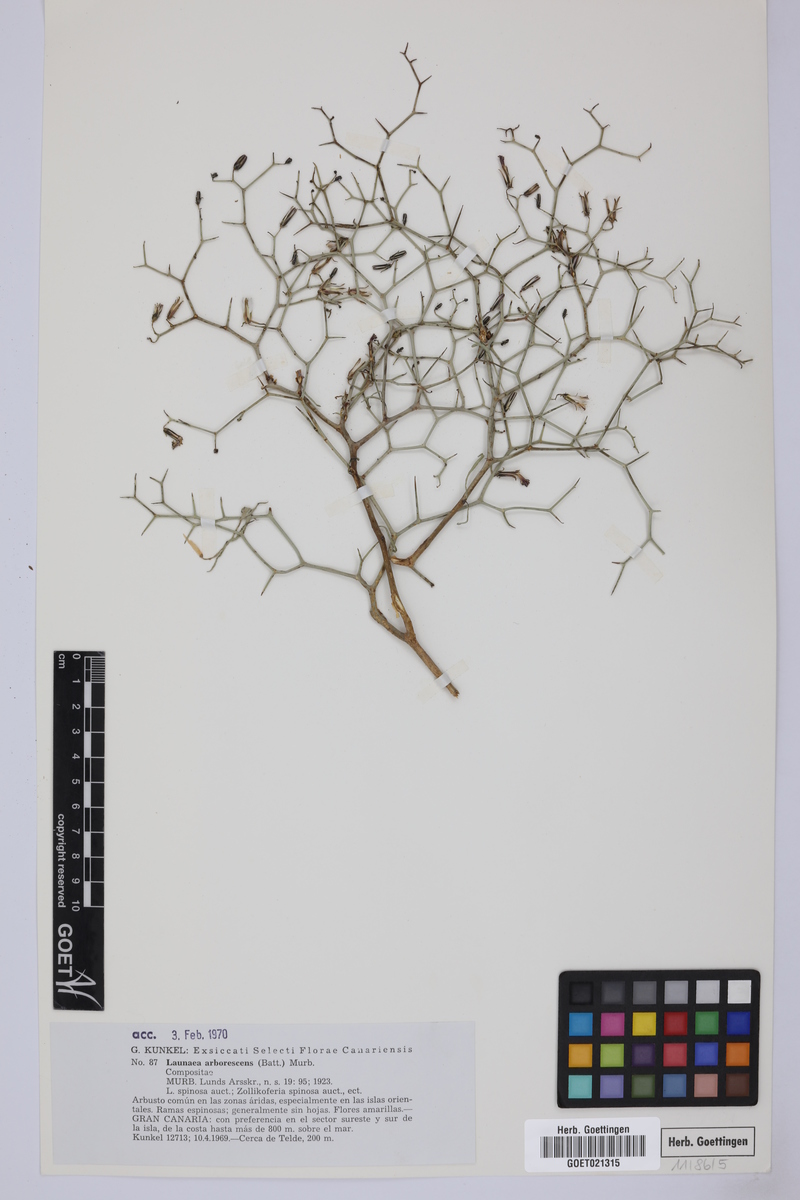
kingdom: Plantae
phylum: Tracheophyta
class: Magnoliopsida
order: Asterales
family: Asteraceae
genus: Launaea
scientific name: Launaea arborescens
